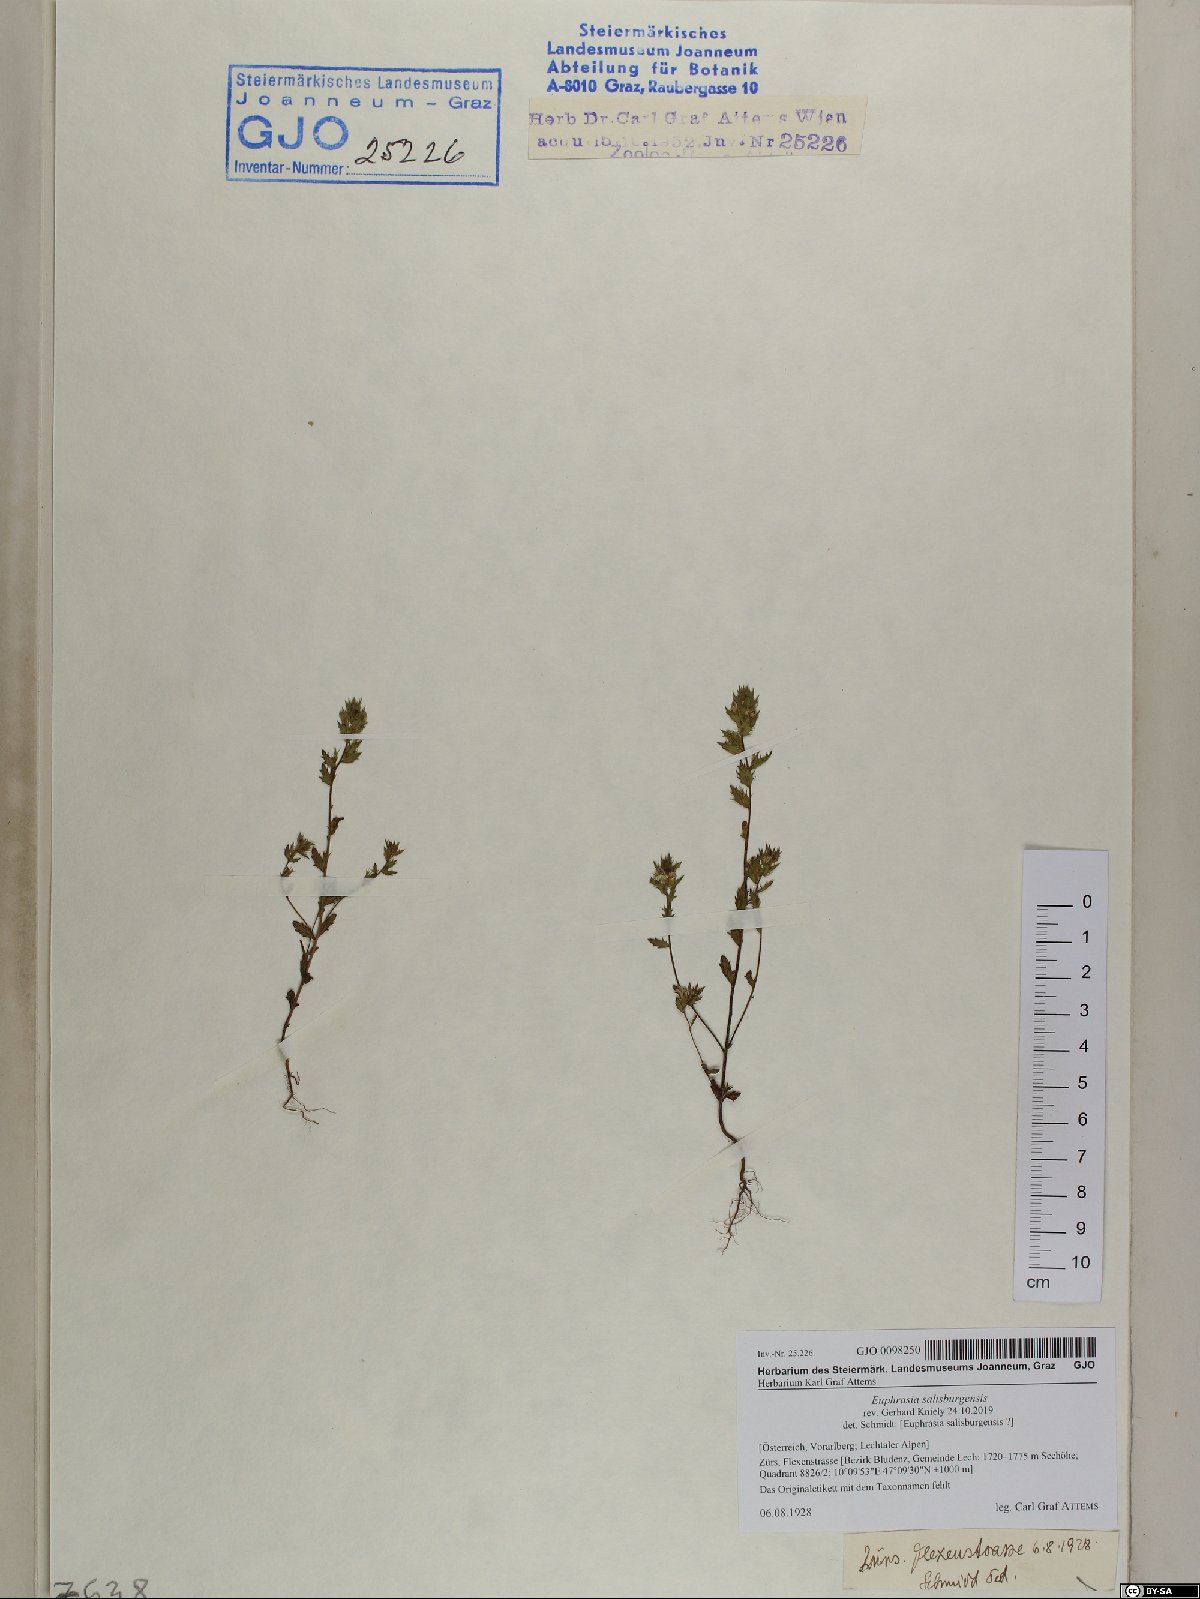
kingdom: Plantae
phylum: Tracheophyta
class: Magnoliopsida
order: Lamiales
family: Orobanchaceae
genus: Euphrasia
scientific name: Euphrasia salisburgensis
